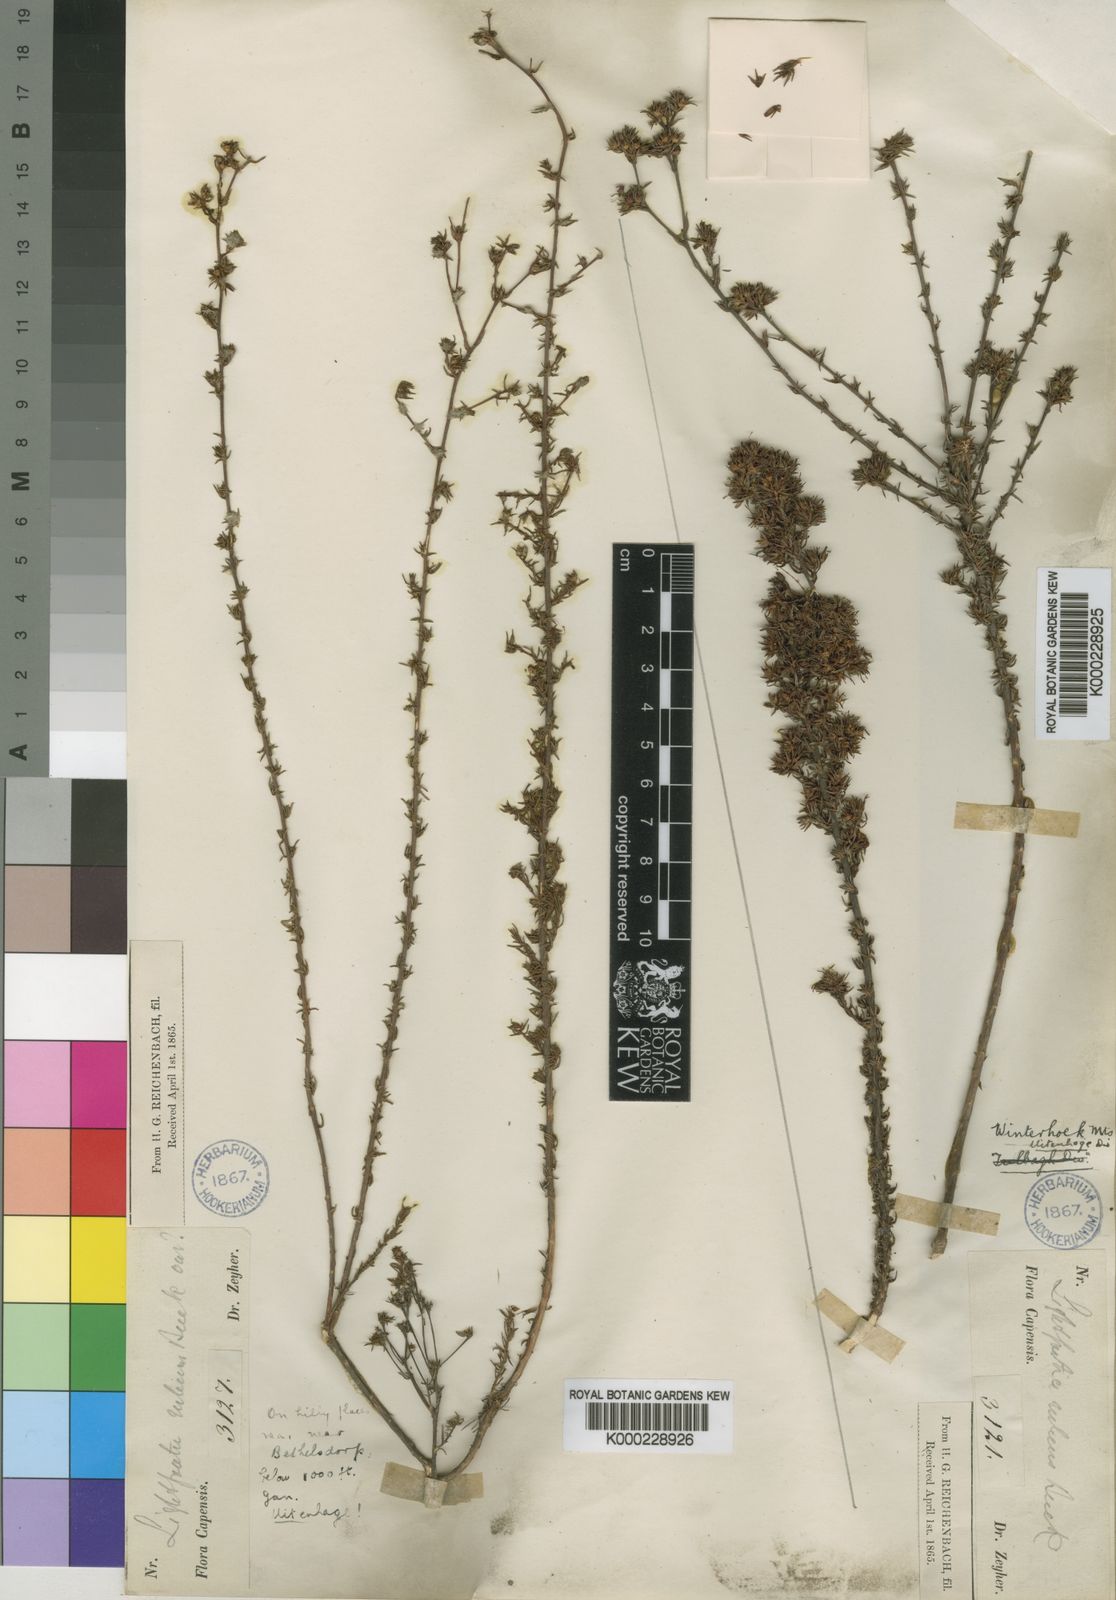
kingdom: Plantae
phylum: Tracheophyta
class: Magnoliopsida
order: Asterales
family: Campanulaceae
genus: Wahlenbergia
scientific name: Wahlenbergia rubens
